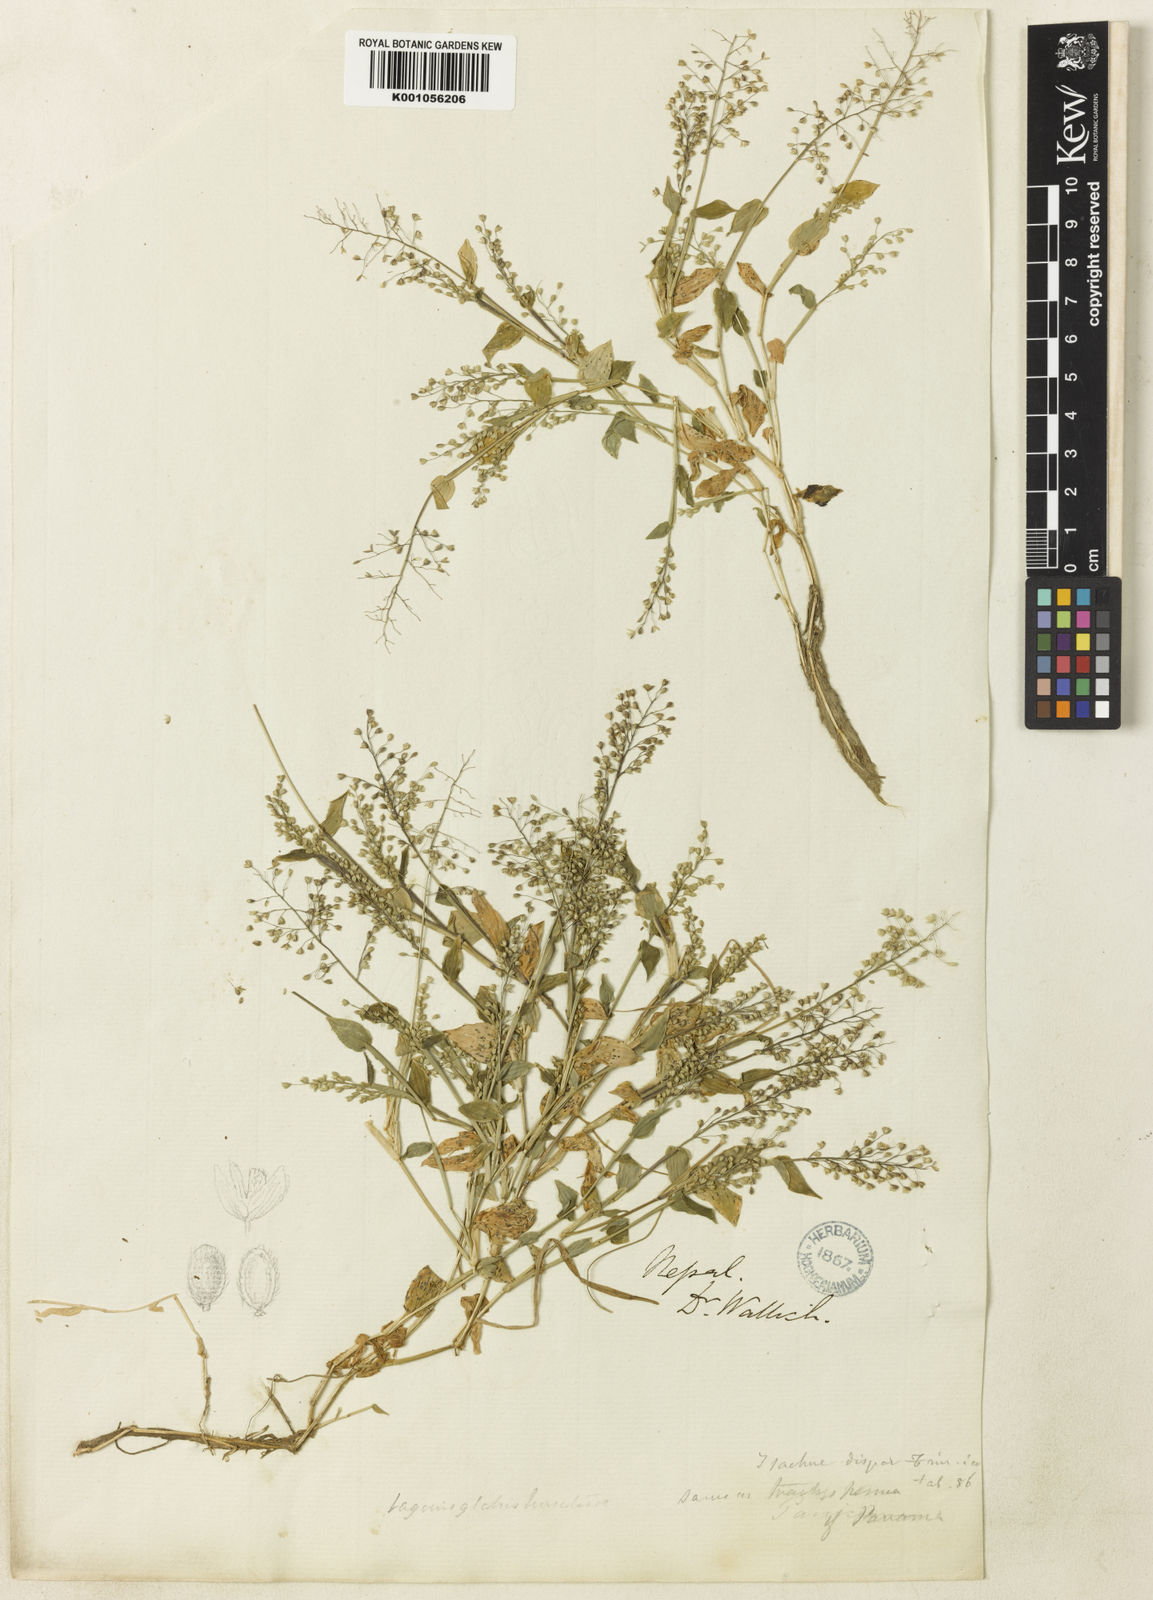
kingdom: Plantae
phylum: Tracheophyta
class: Liliopsida
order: Poales
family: Poaceae
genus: Isachne
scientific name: Isachne pulchella
